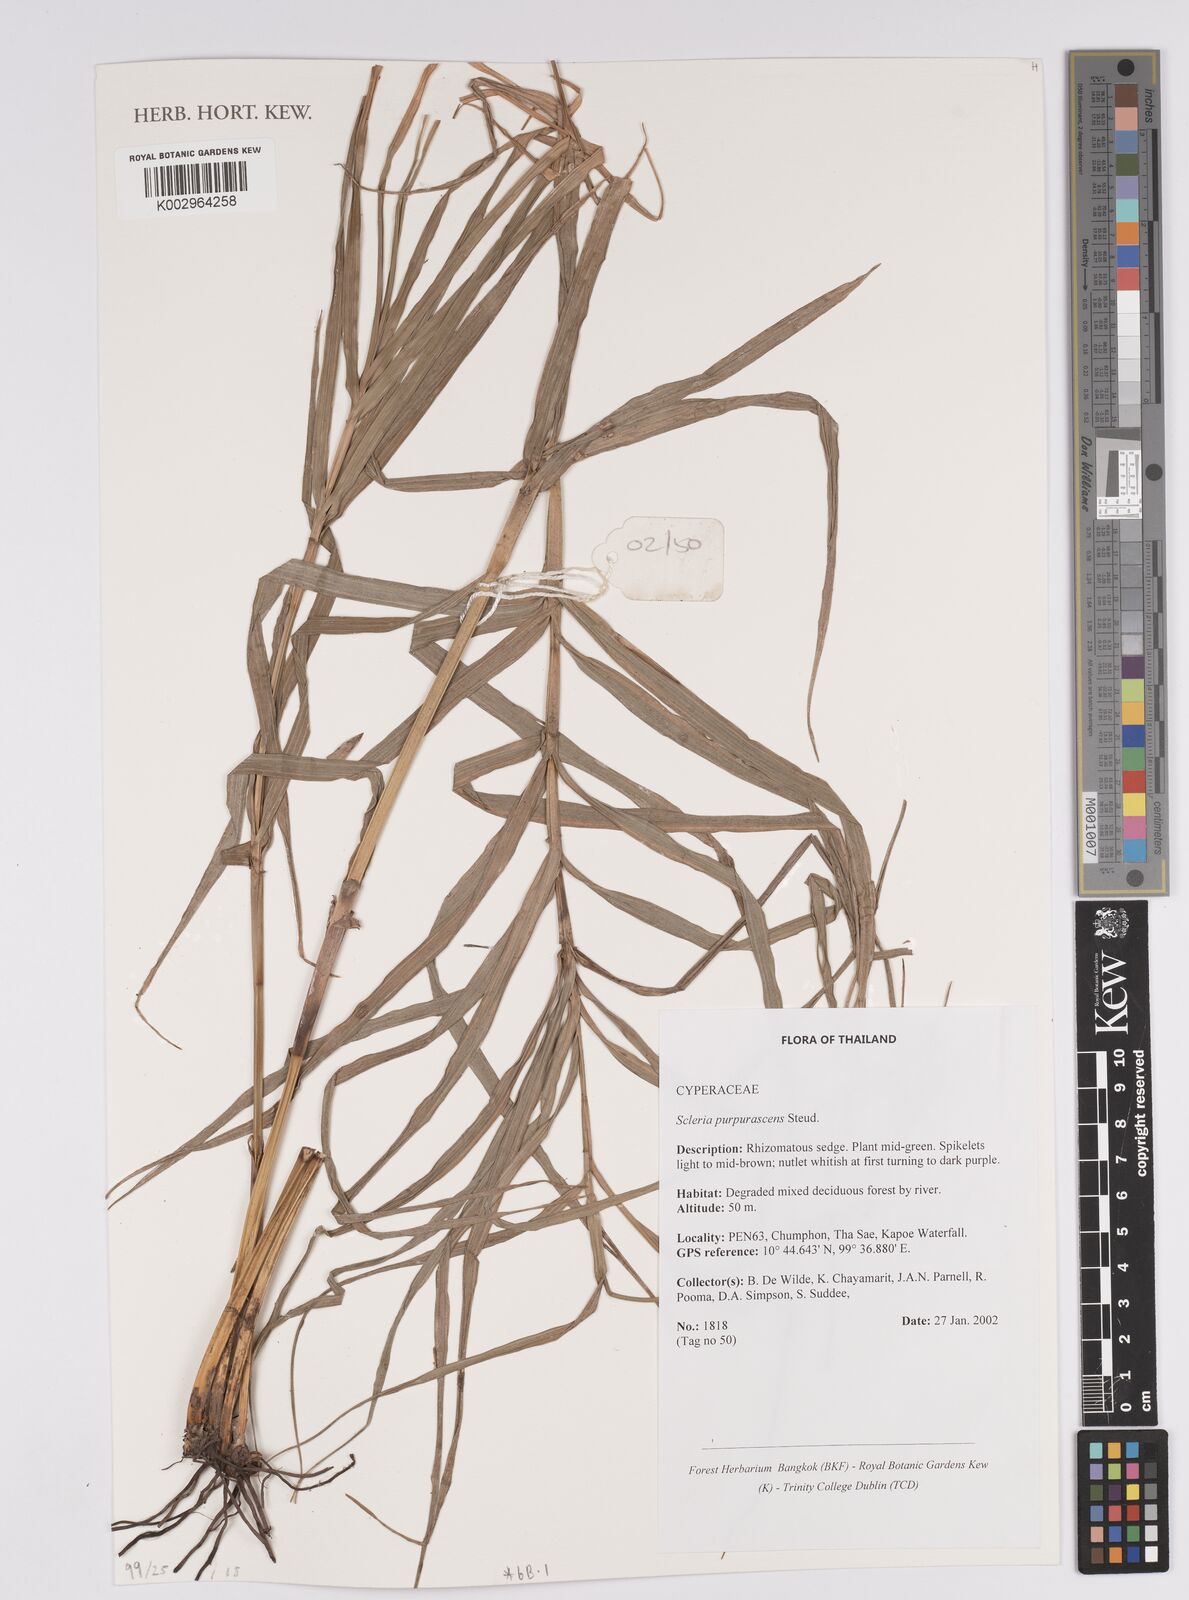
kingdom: Plantae
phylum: Tracheophyta
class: Liliopsida
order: Poales
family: Cyperaceae
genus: Scleria
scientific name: Scleria purpurascens
